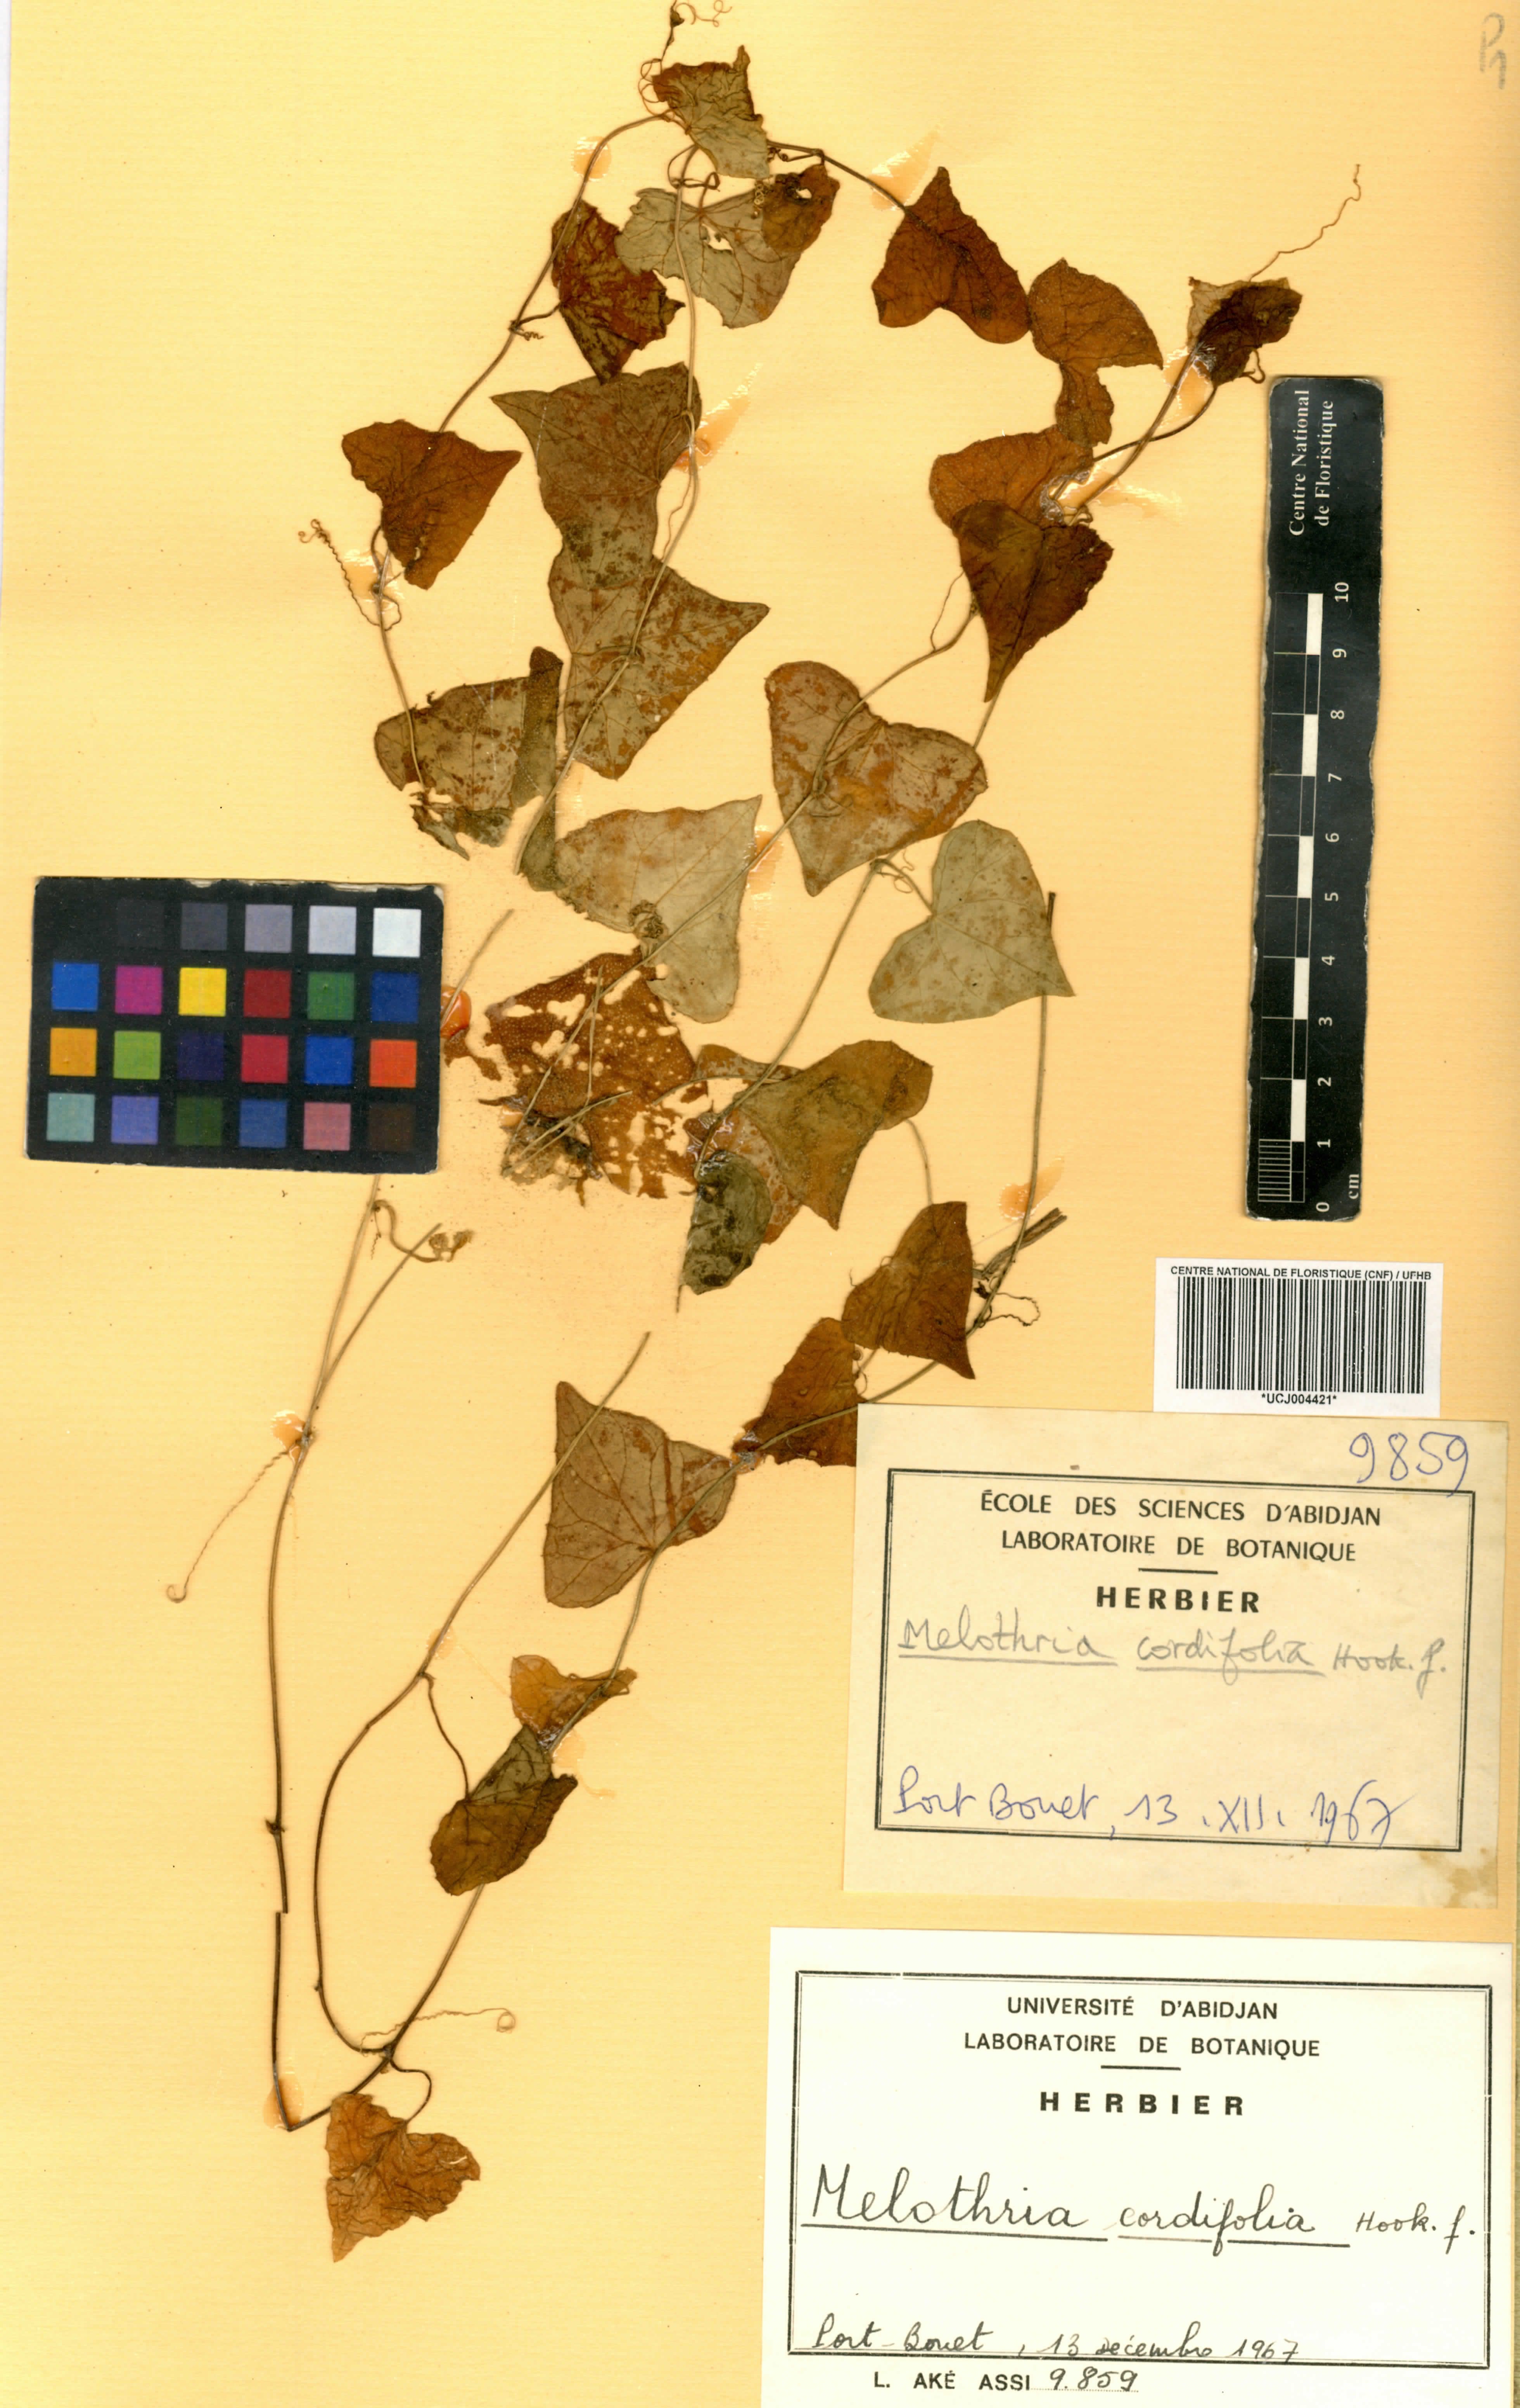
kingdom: Plantae
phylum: Tracheophyta
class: Magnoliopsida
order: Cucurbitales
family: Cucurbitaceae
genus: Zehneria
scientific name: Zehneria gilletii
